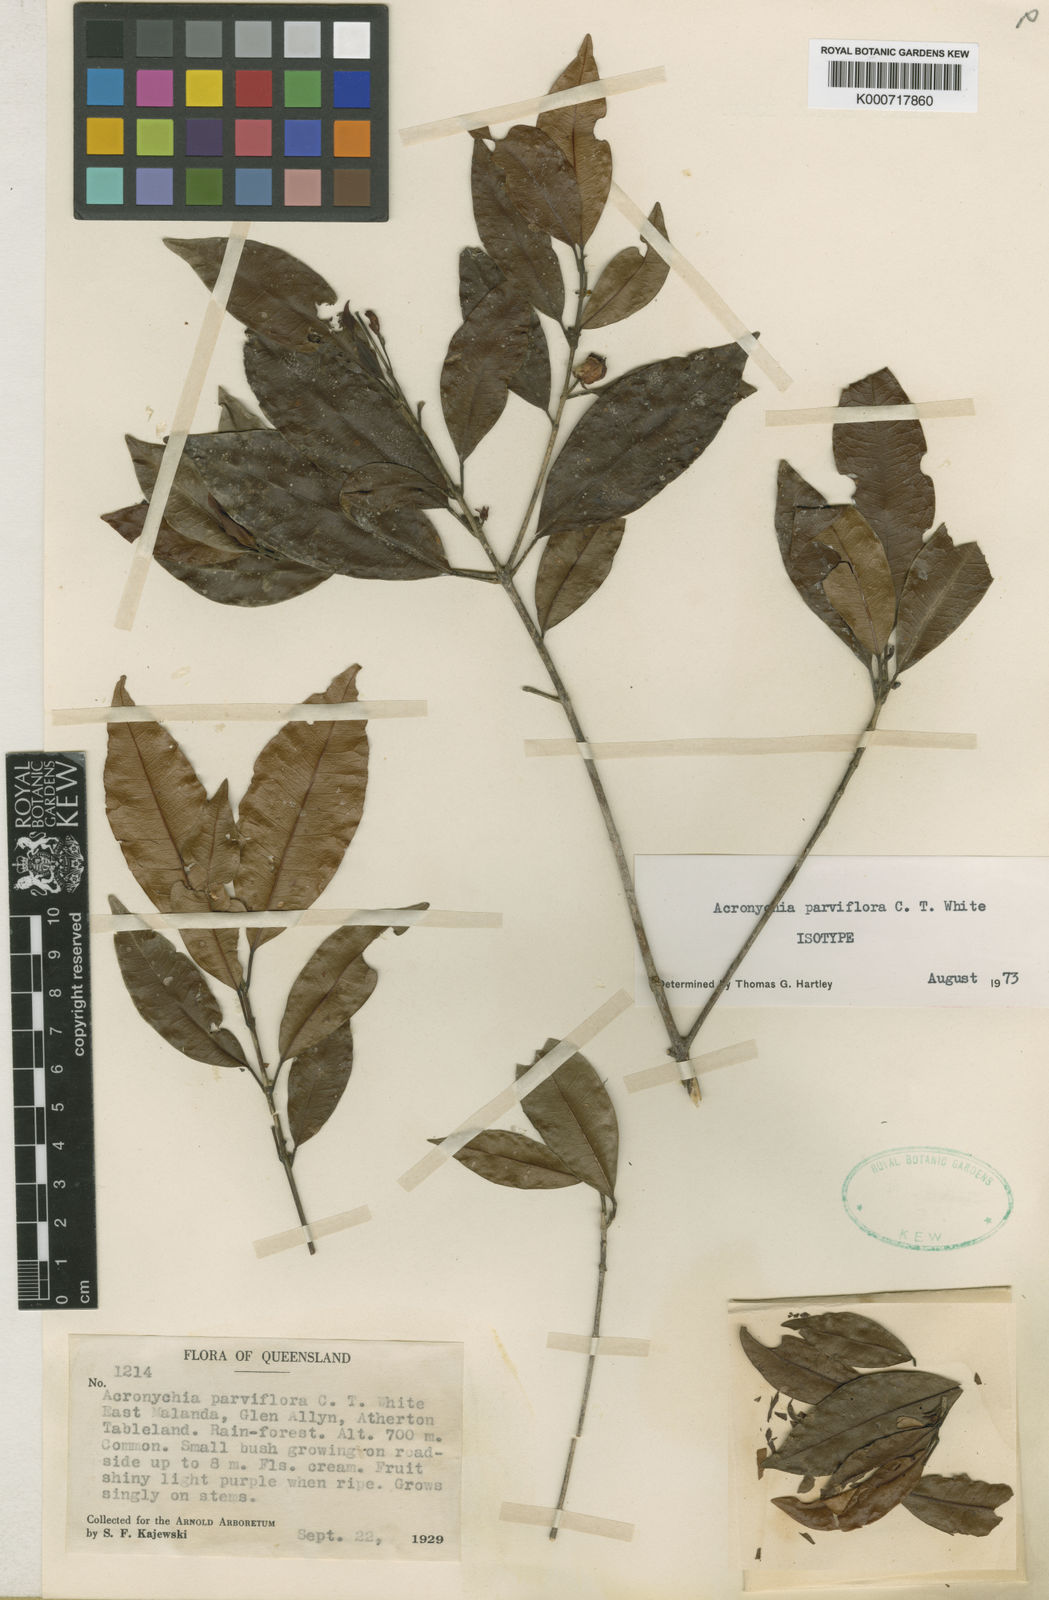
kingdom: Plantae
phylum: Tracheophyta
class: Magnoliopsida
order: Sapindales
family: Rutaceae
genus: Acronychia
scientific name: Acronychia parviflora
